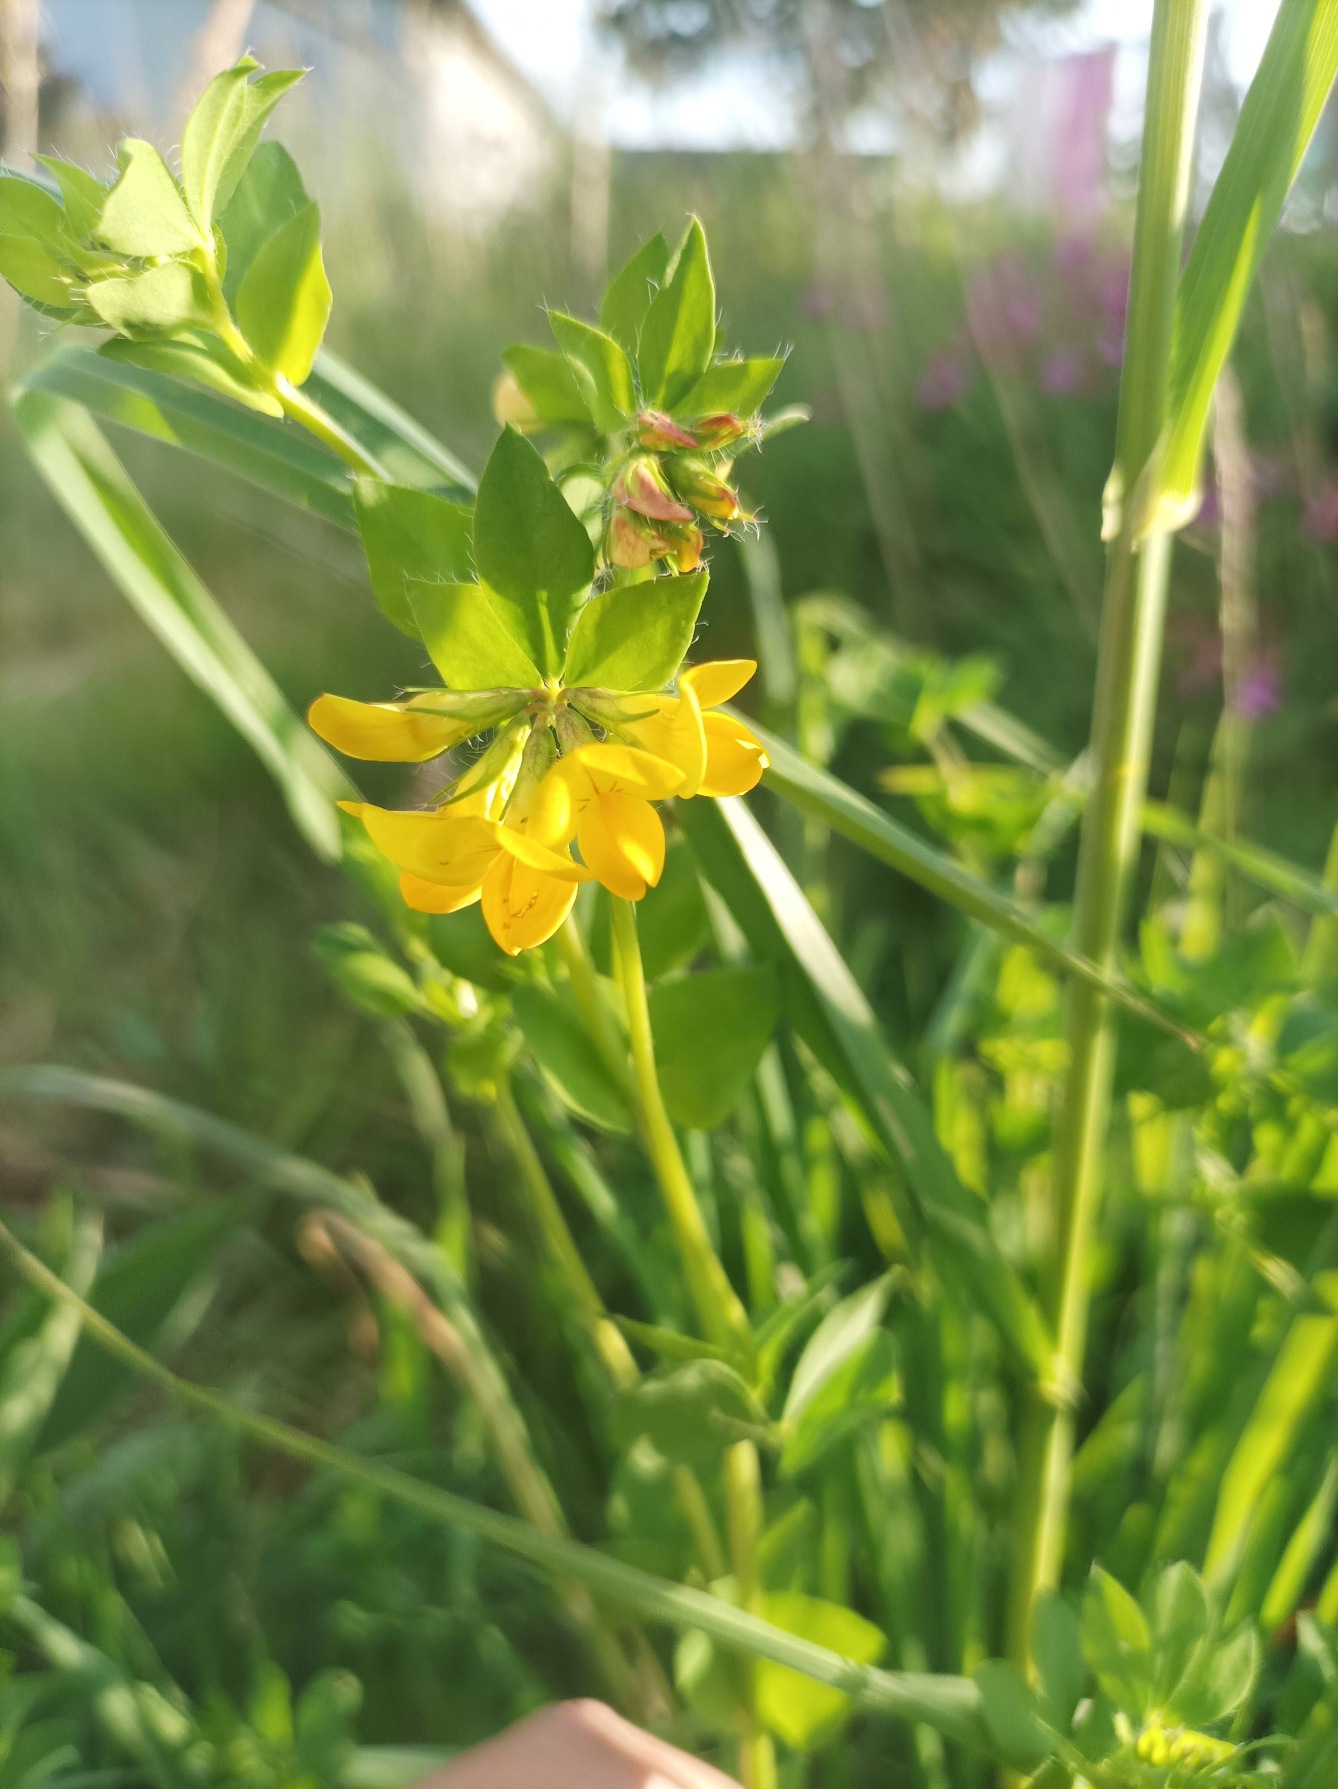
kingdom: Plantae
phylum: Tracheophyta
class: Magnoliopsida
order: Fabales
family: Fabaceae
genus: Lotus
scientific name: Lotus corniculatus
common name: Almindelig kællingetand
